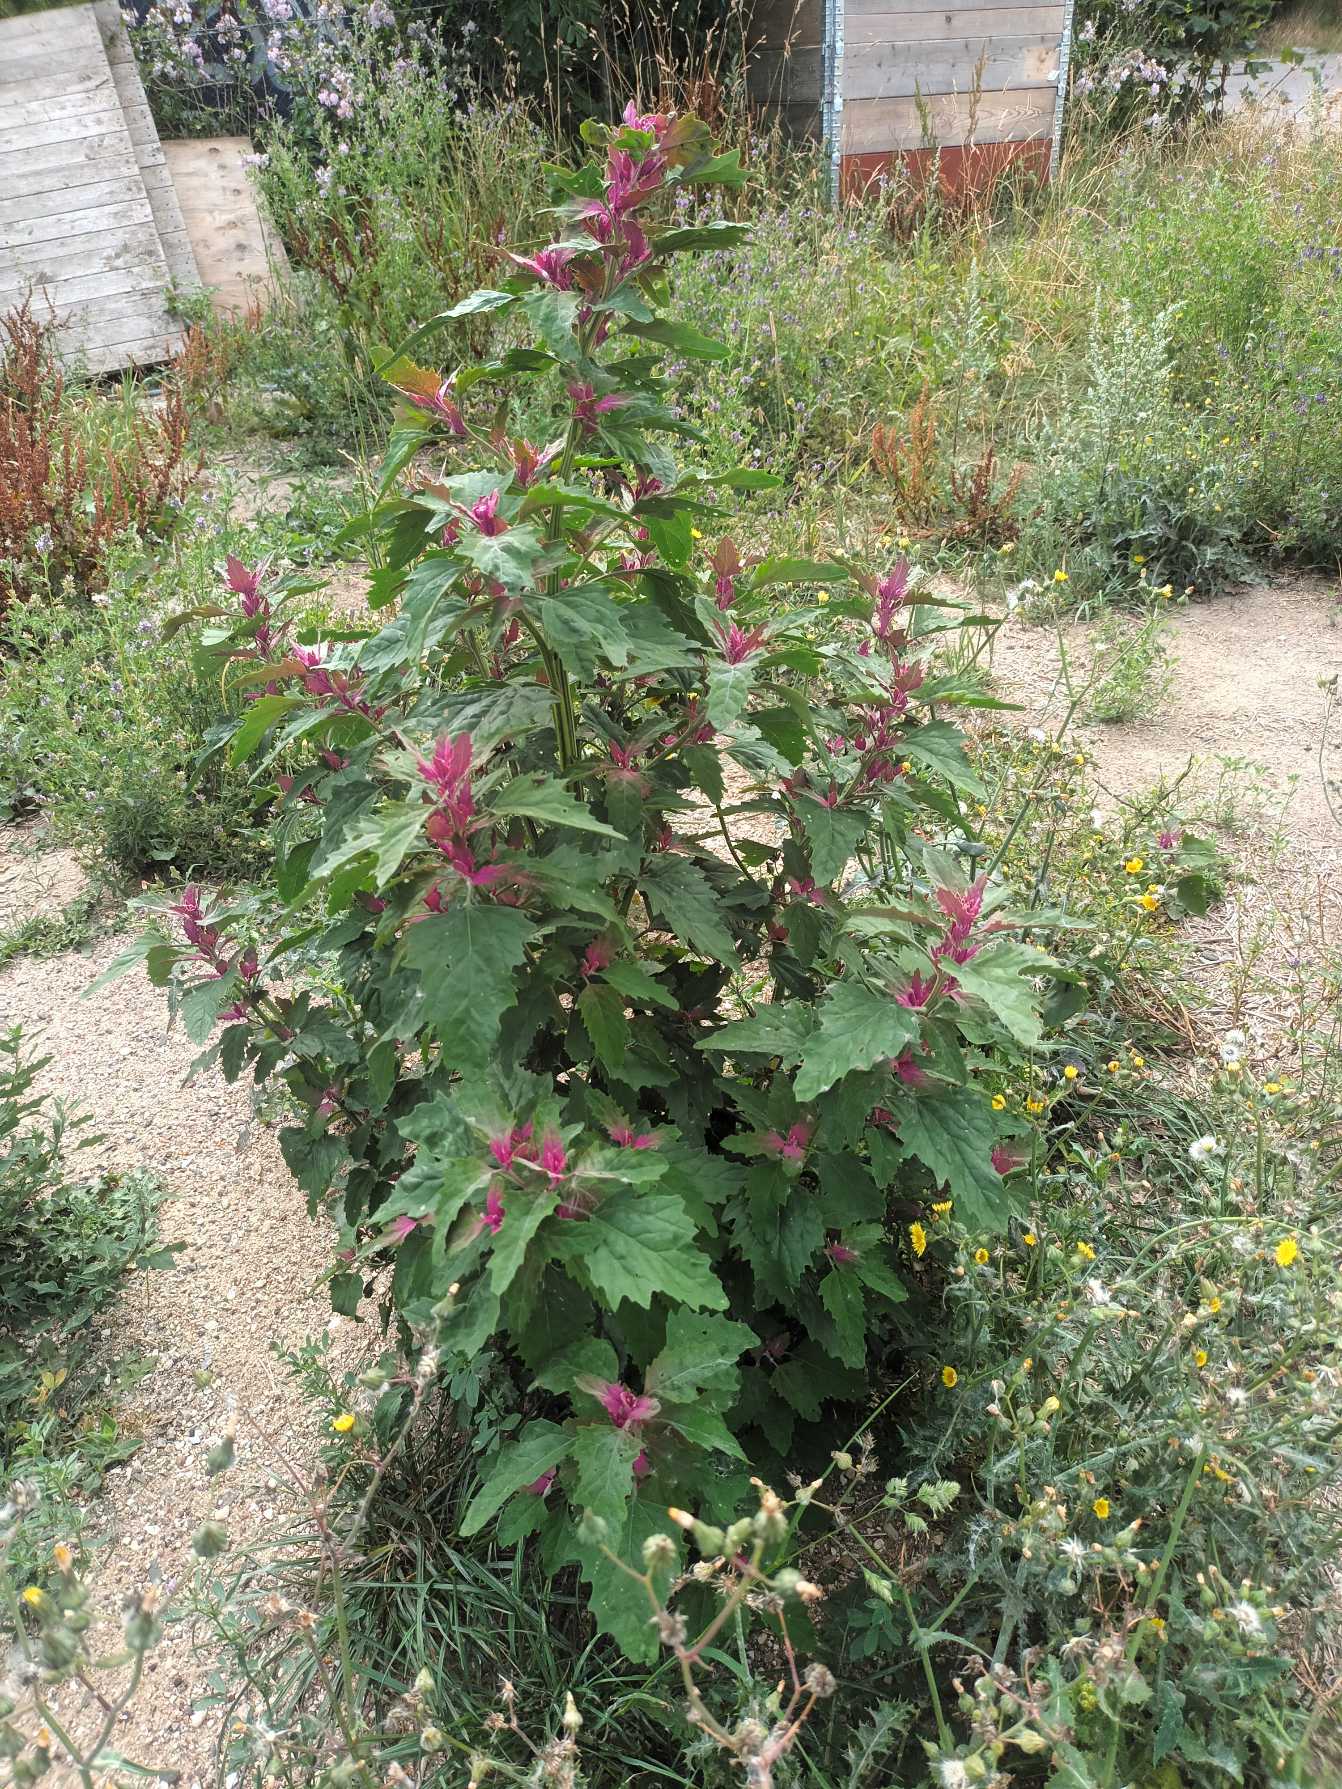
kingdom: Plantae
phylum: Tracheophyta
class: Magnoliopsida
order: Caryophyllales
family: Amaranthaceae
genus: Chenopodium
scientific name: Chenopodium giganteum
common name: Kæmpe-gåsefod
